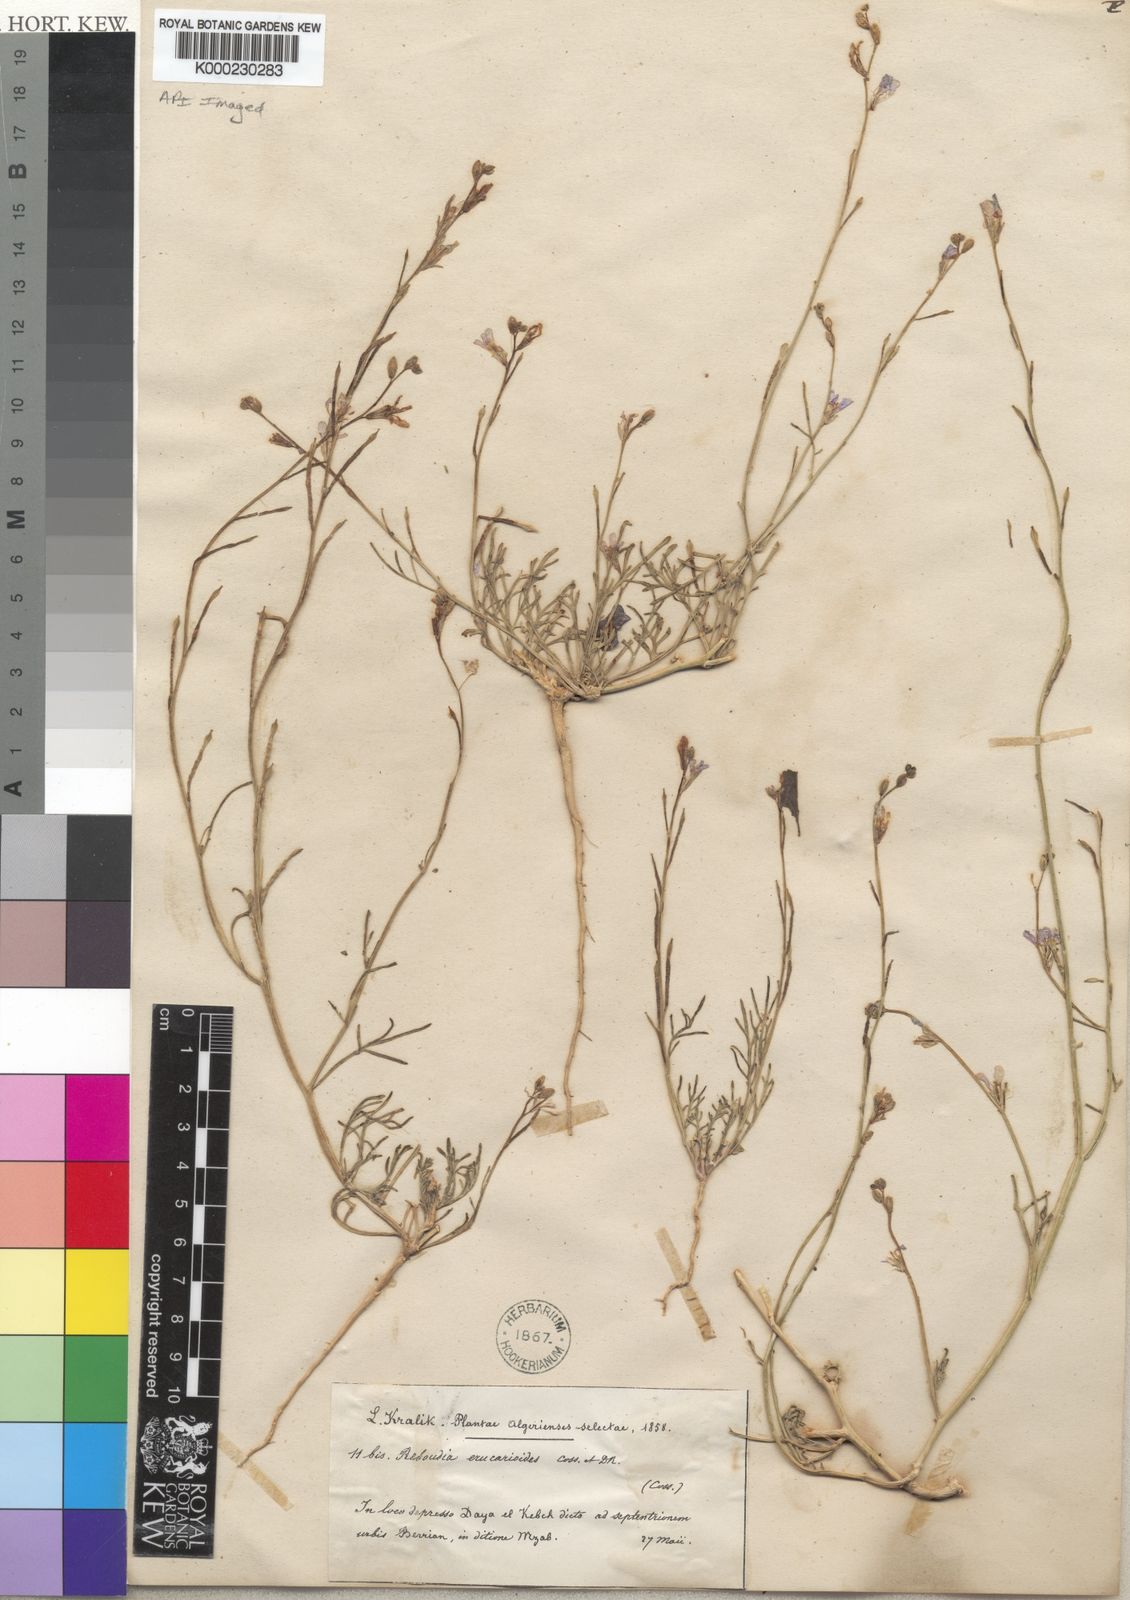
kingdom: Plantae
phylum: Tracheophyta
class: Magnoliopsida
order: Brassicales
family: Brassicaceae
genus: Erucaria
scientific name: Erucaria erucarioides
